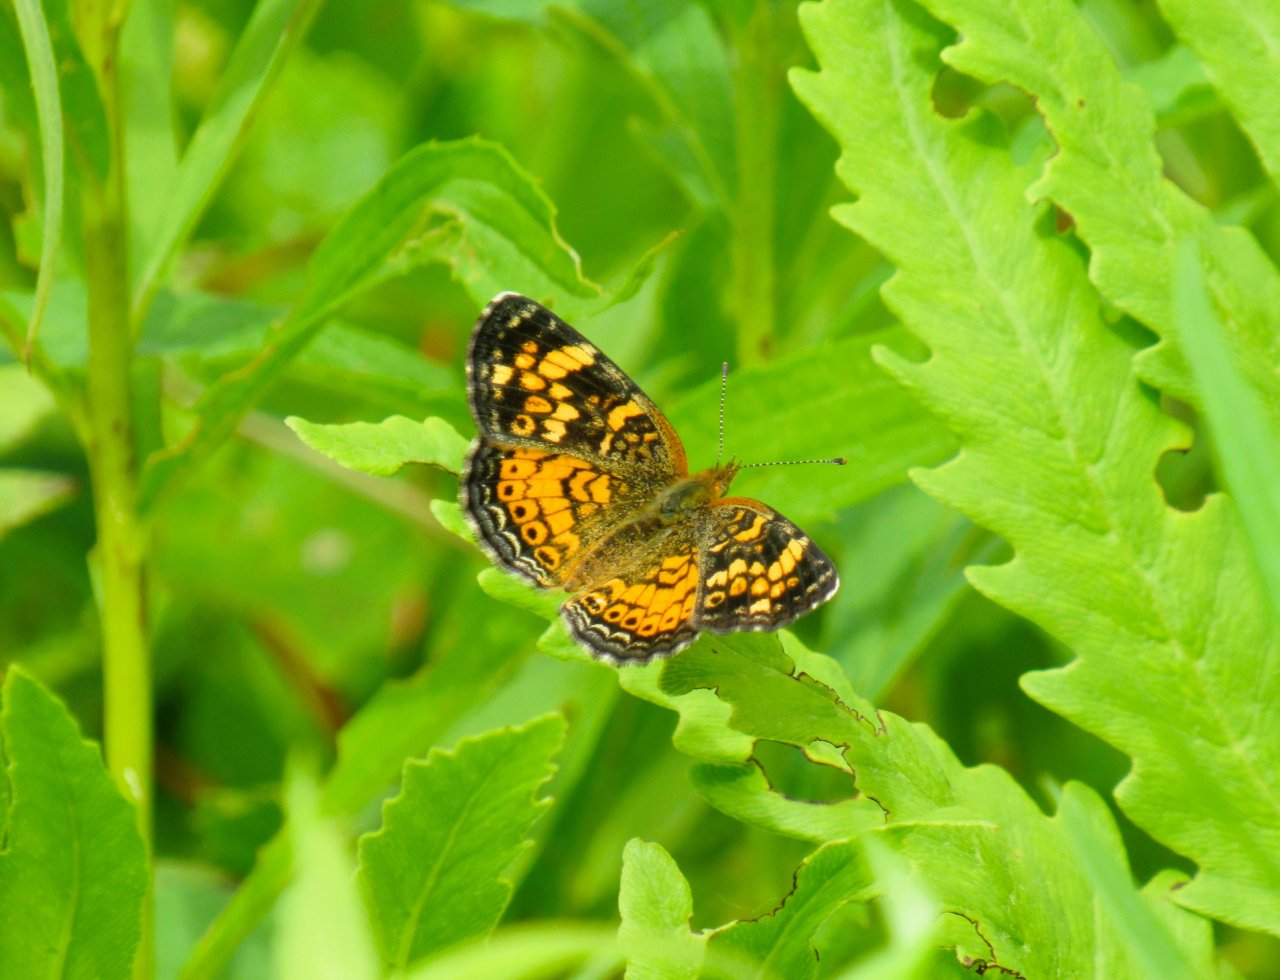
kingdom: Animalia
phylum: Arthropoda
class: Insecta
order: Lepidoptera
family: Nymphalidae
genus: Phyciodes
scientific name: Phyciodes tharos
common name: Pearl Crescent
